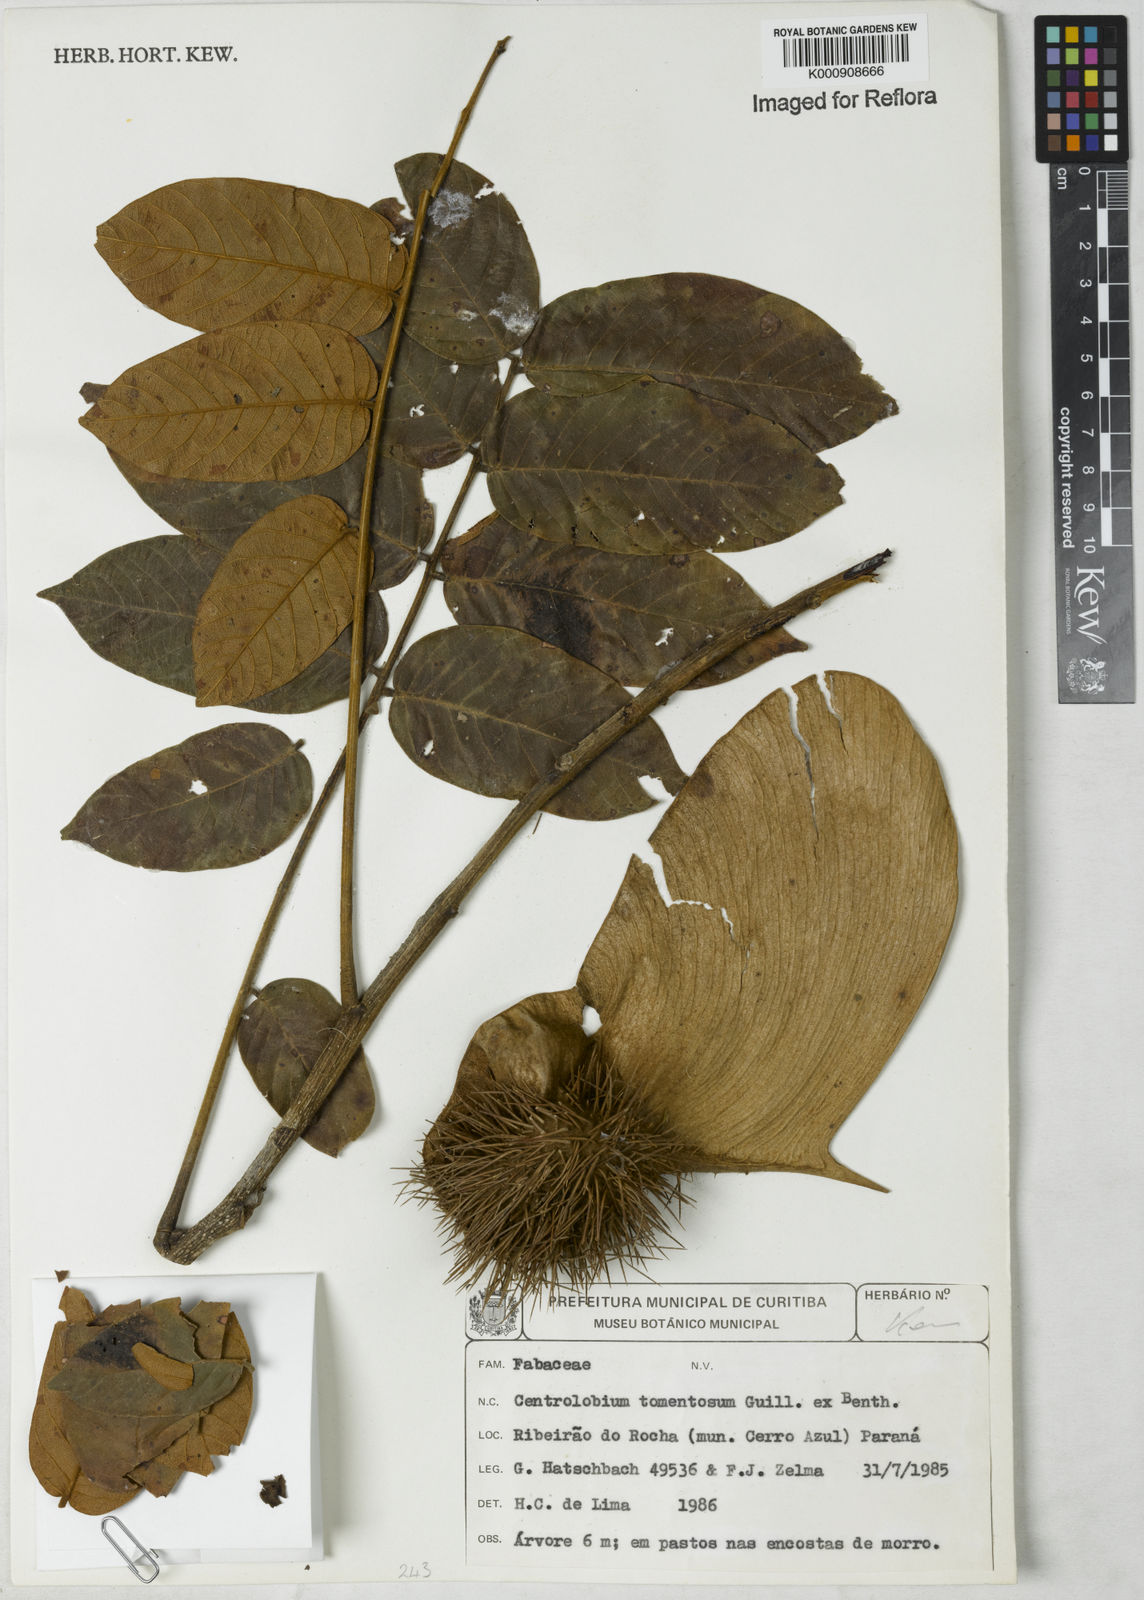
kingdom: Plantae
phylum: Tracheophyta
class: Magnoliopsida
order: Fabales
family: Fabaceae
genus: Centrolobium
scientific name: Centrolobium tomentosum
